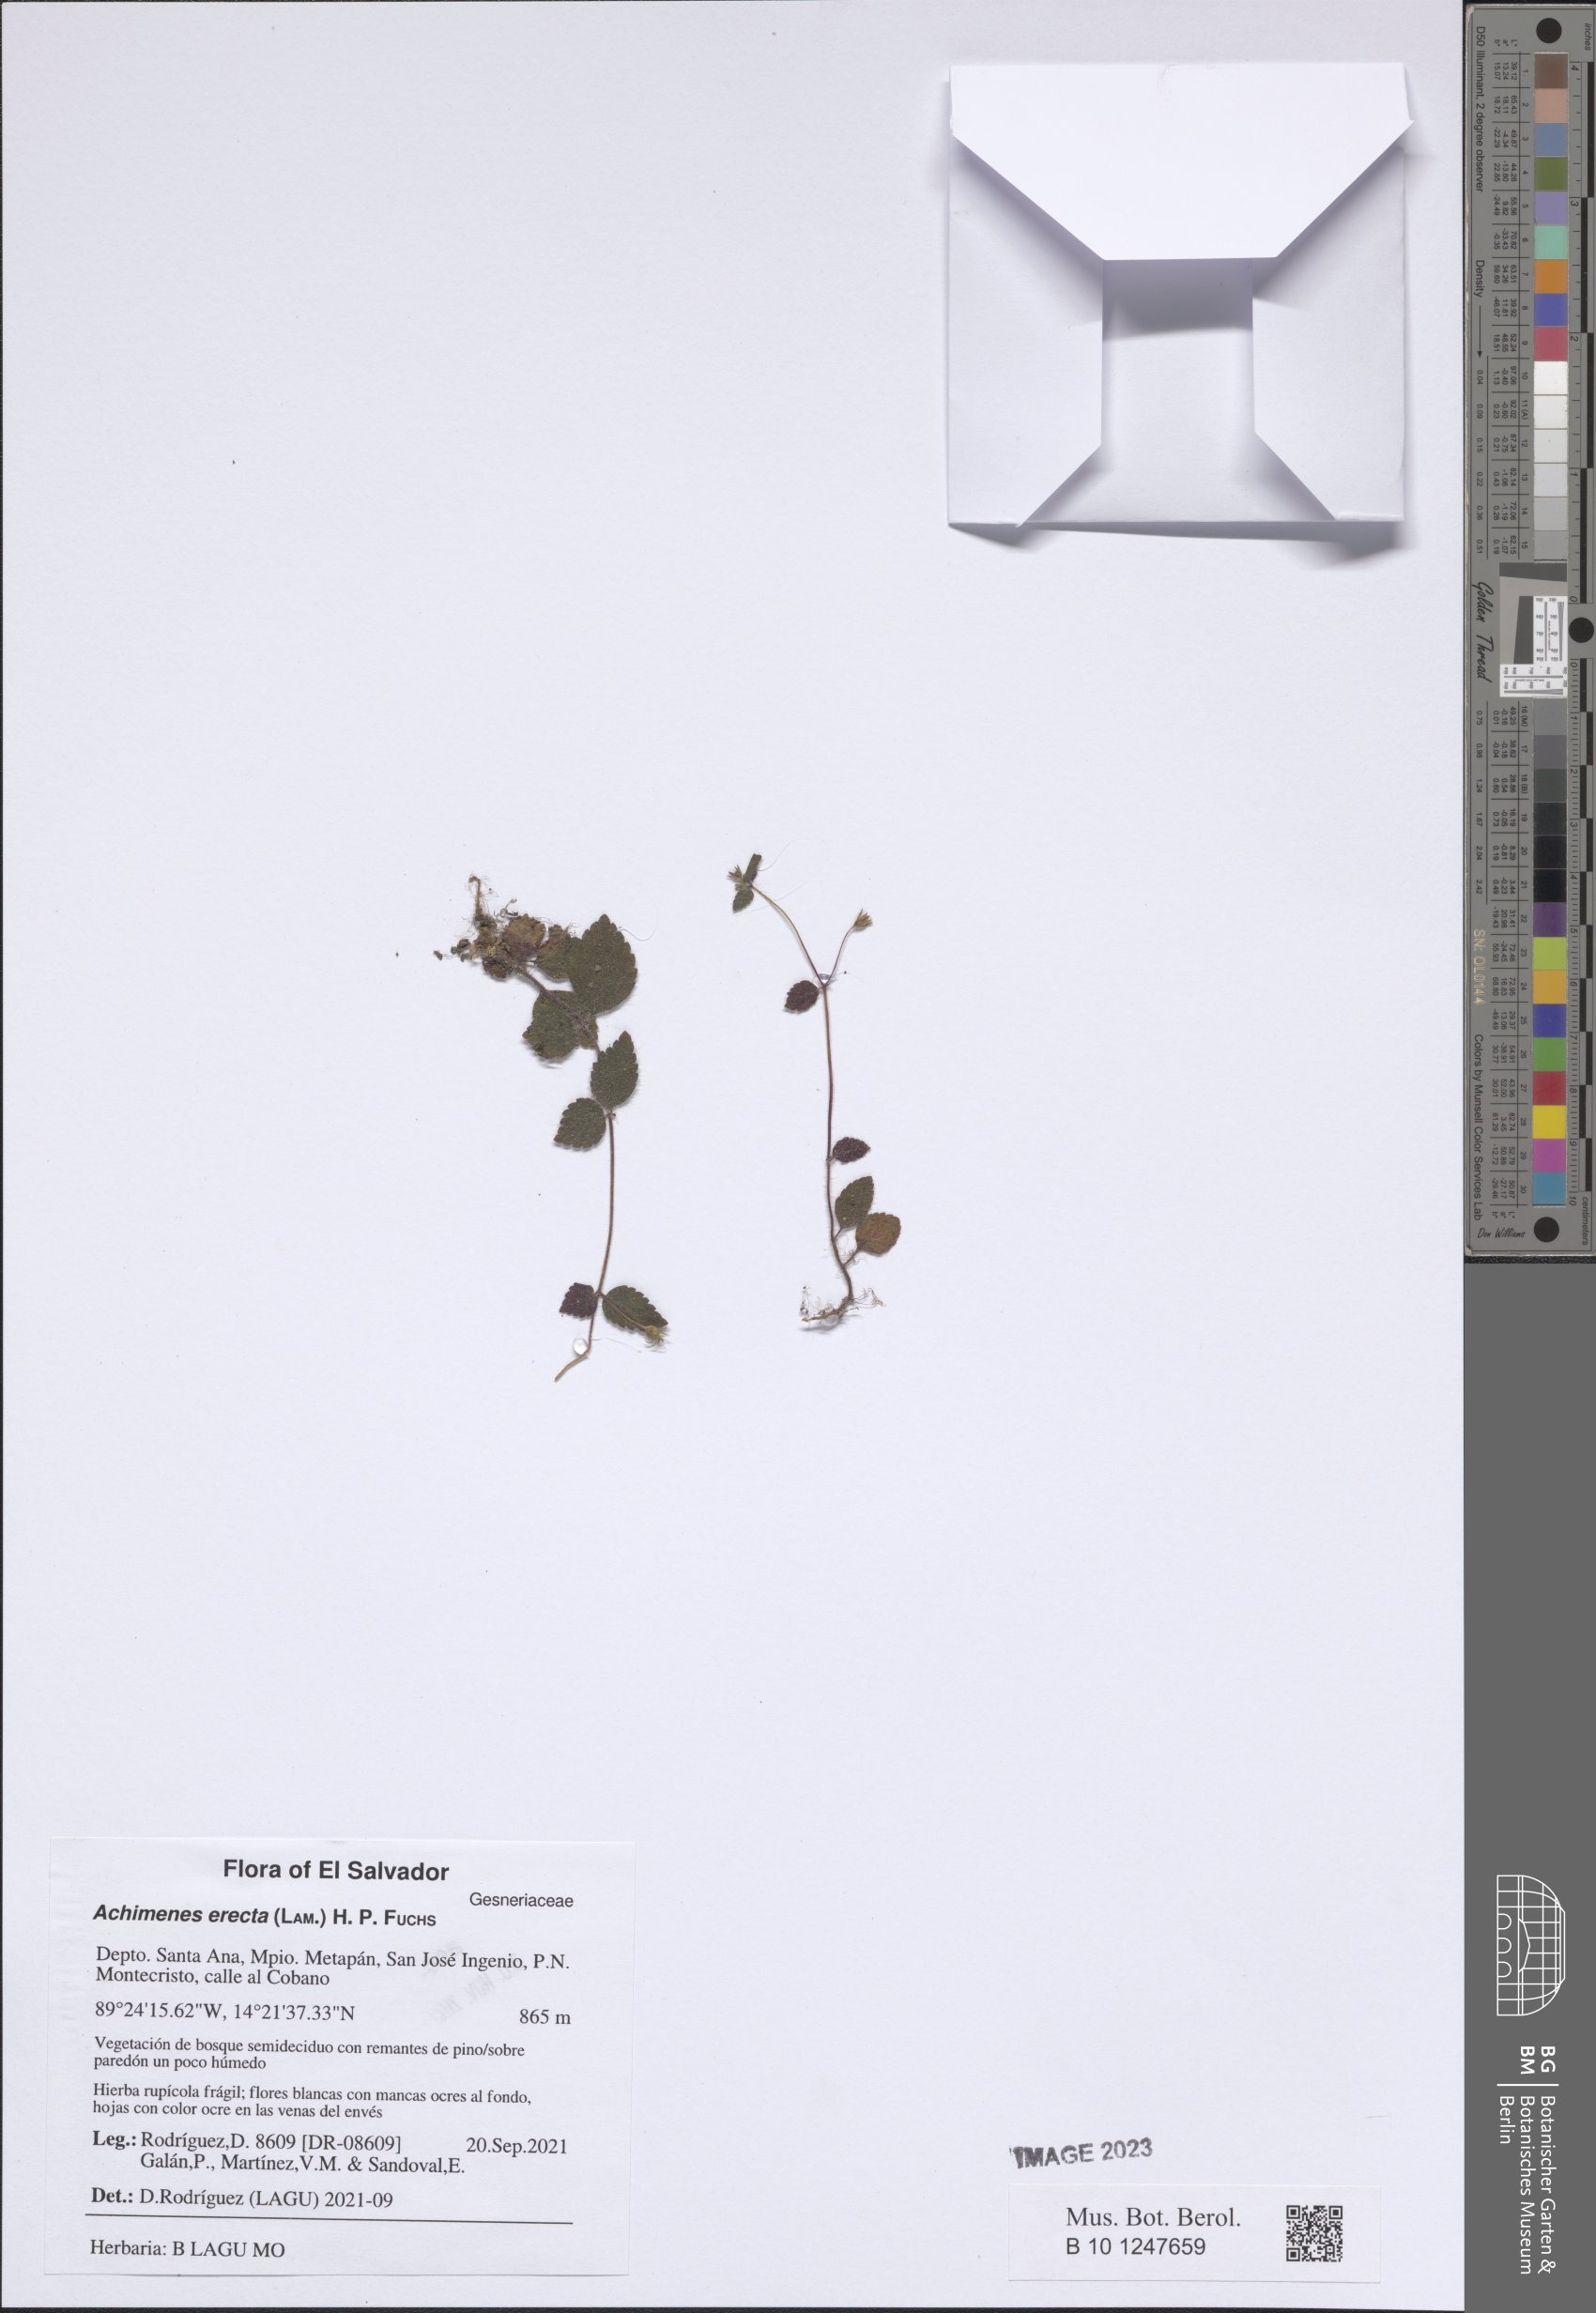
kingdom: Plantae
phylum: Tracheophyta
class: Magnoliopsida
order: Lamiales
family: Gesneriaceae
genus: Achimenes
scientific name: Achimenes erecta
